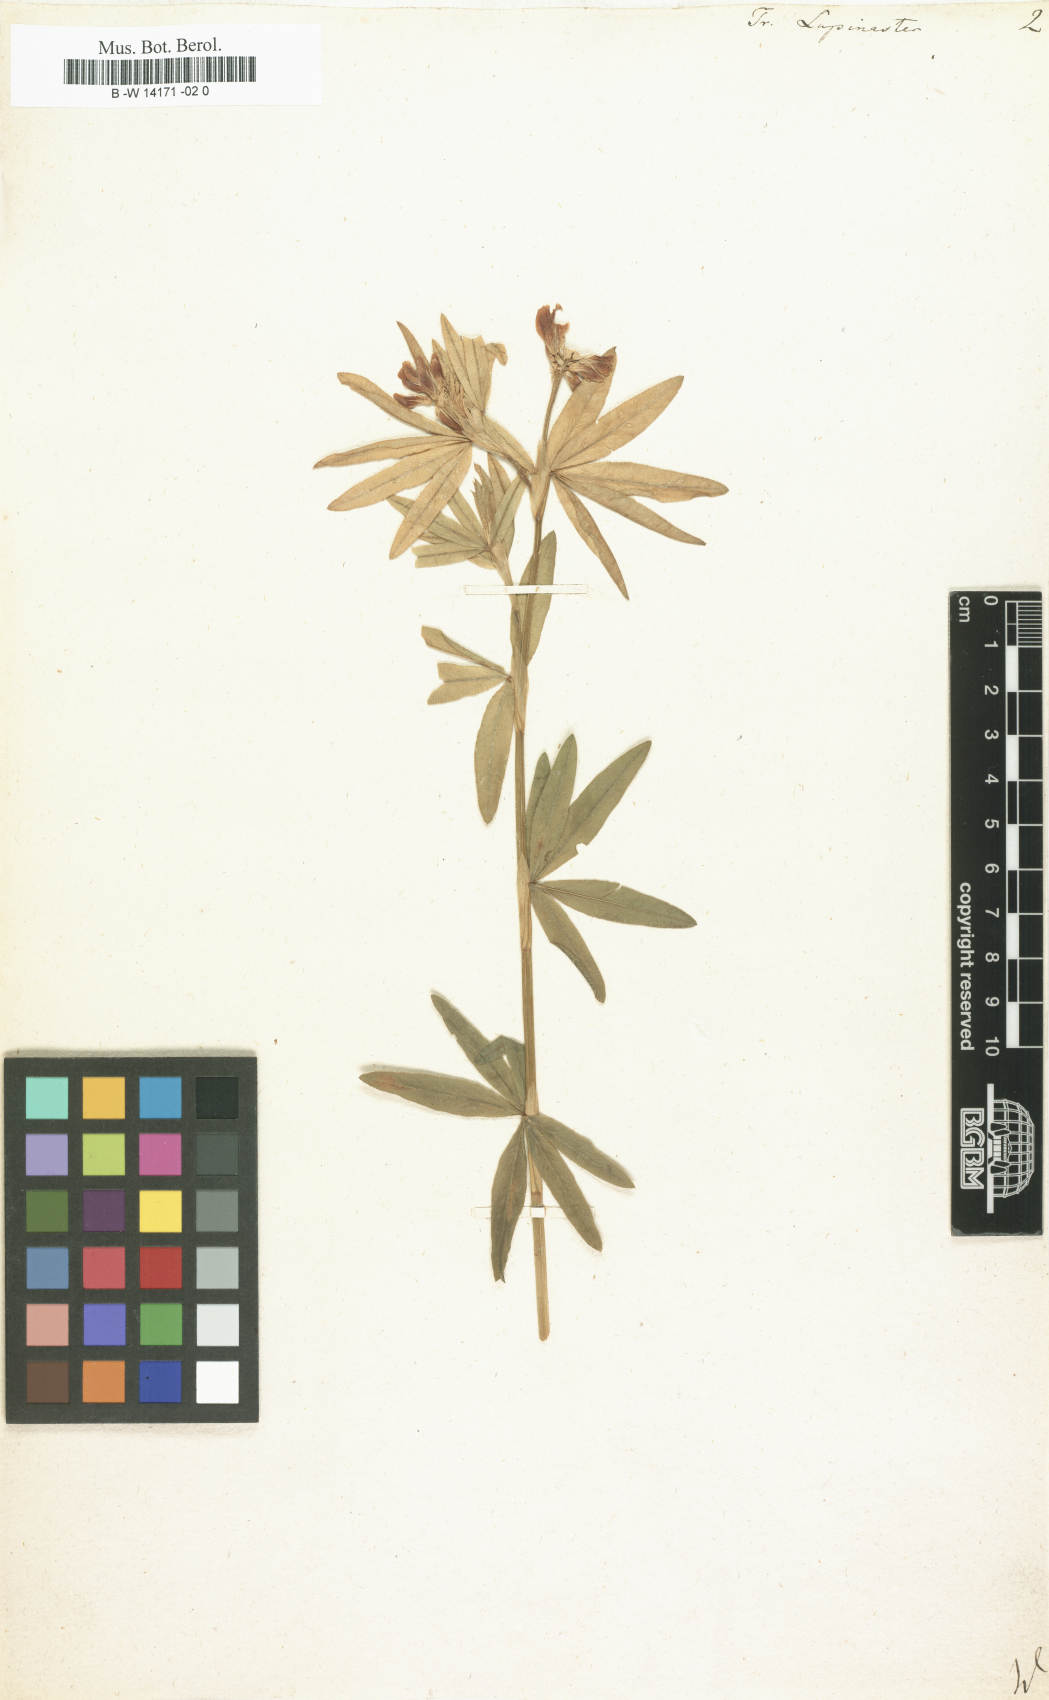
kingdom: Plantae
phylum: Tracheophyta
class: Magnoliopsida
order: Fabales
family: Fabaceae
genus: Trifolium
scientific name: Trifolium lupinaster
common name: Lupine clover
